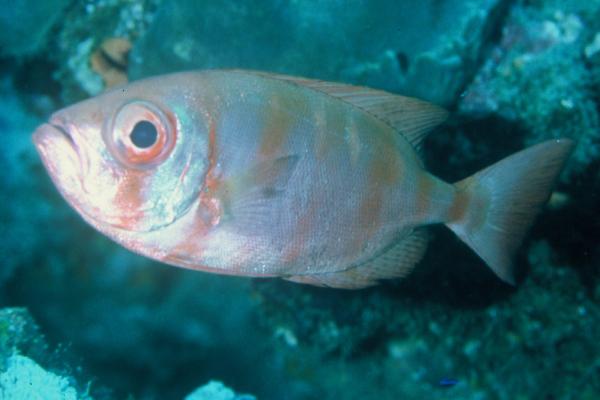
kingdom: Animalia
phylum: Chordata
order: Perciformes
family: Priacanthidae
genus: Priacanthus
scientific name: Priacanthus
